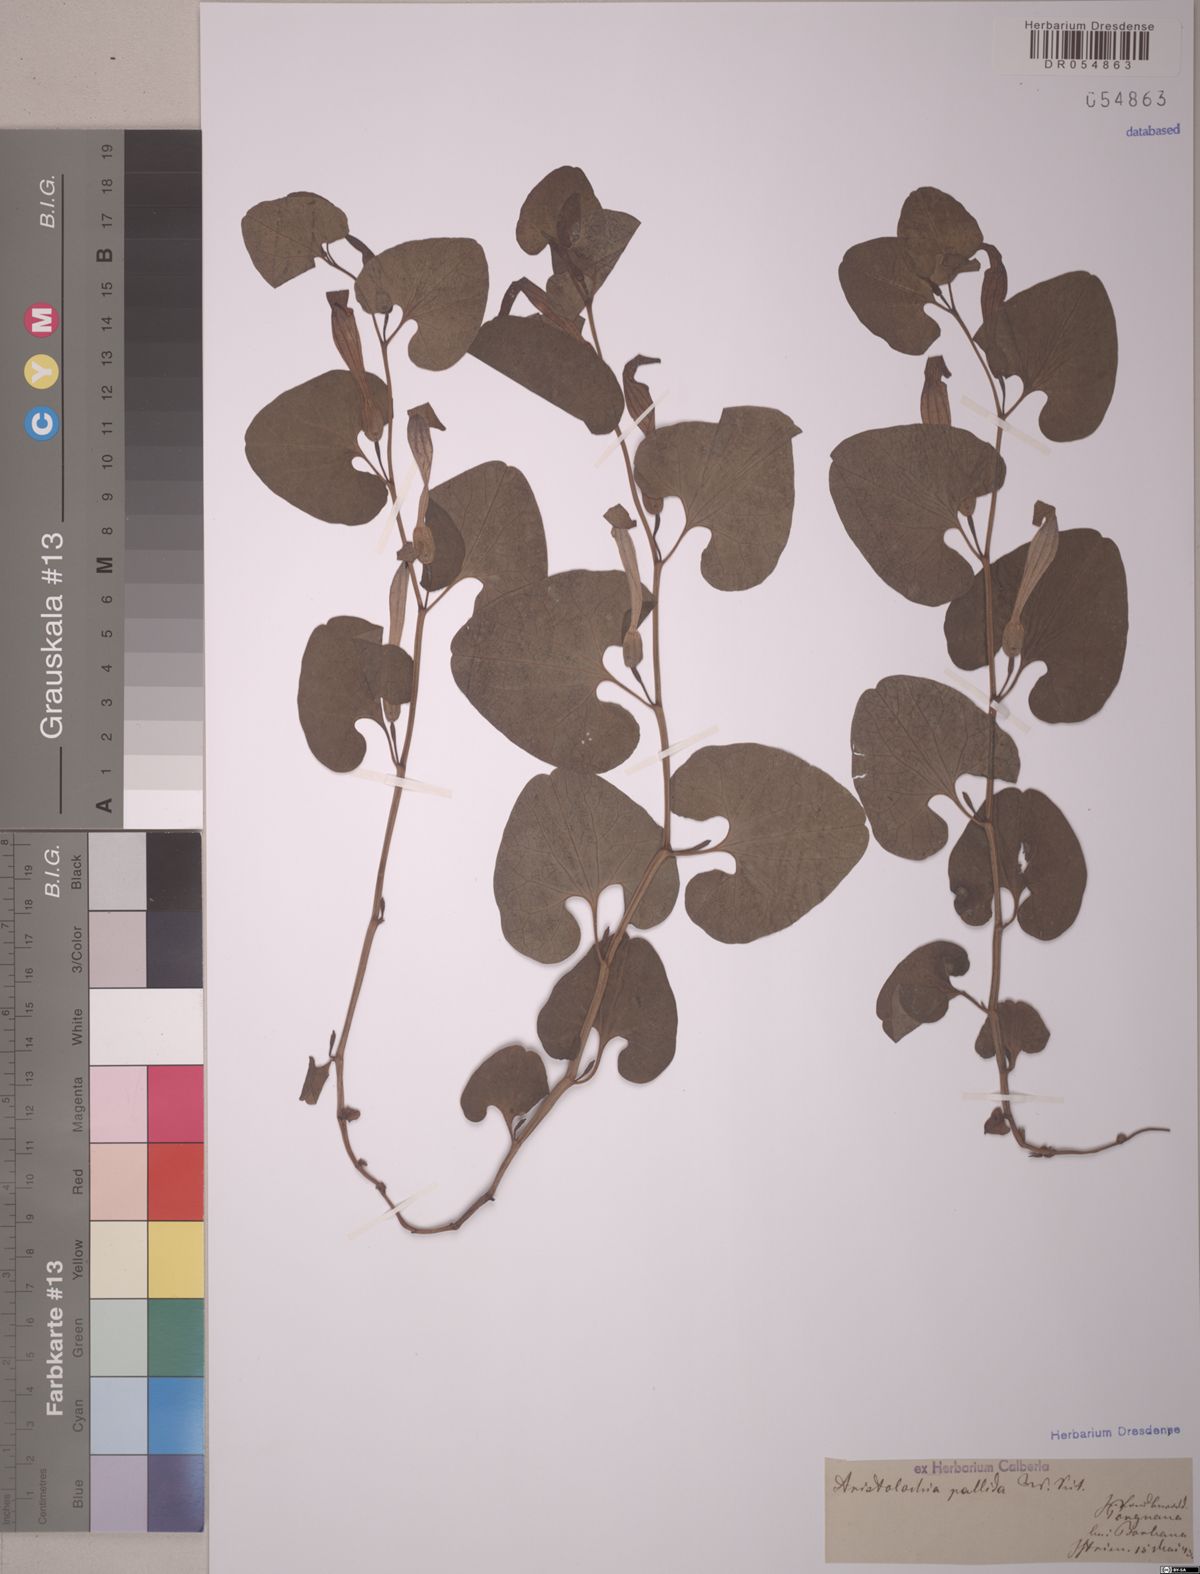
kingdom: Plantae
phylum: Tracheophyta
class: Magnoliopsida
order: Piperales
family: Aristolochiaceae
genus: Aristolochia
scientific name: Aristolochia pallida
